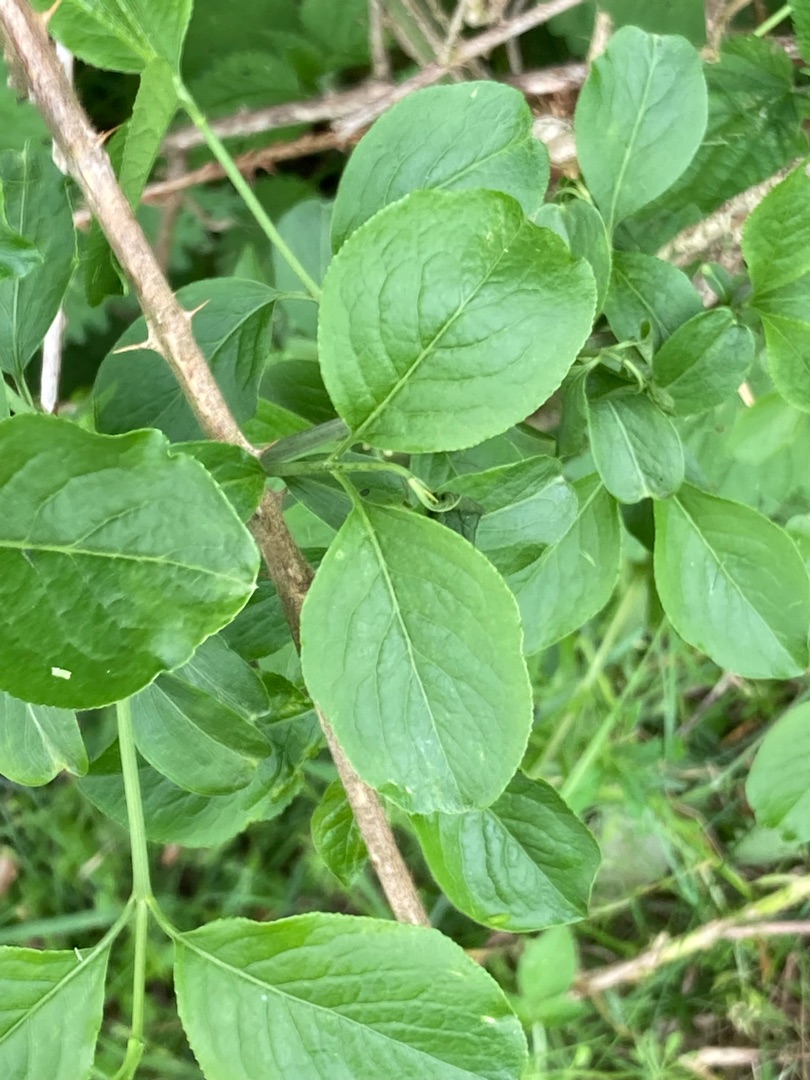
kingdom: Plantae
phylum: Tracheophyta
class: Magnoliopsida
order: Celastrales
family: Celastraceae
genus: Euonymus
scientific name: Euonymus europaeus
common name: Benved
